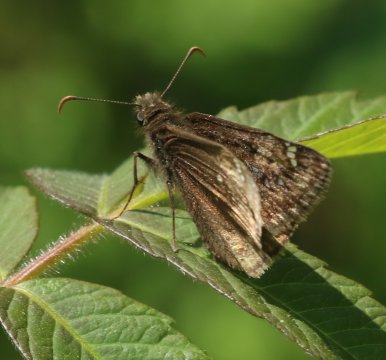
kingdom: Animalia
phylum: Arthropoda
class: Insecta
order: Lepidoptera
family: Hesperiidae
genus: Gesta
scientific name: Gesta
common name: Juvenal's Duskywing
